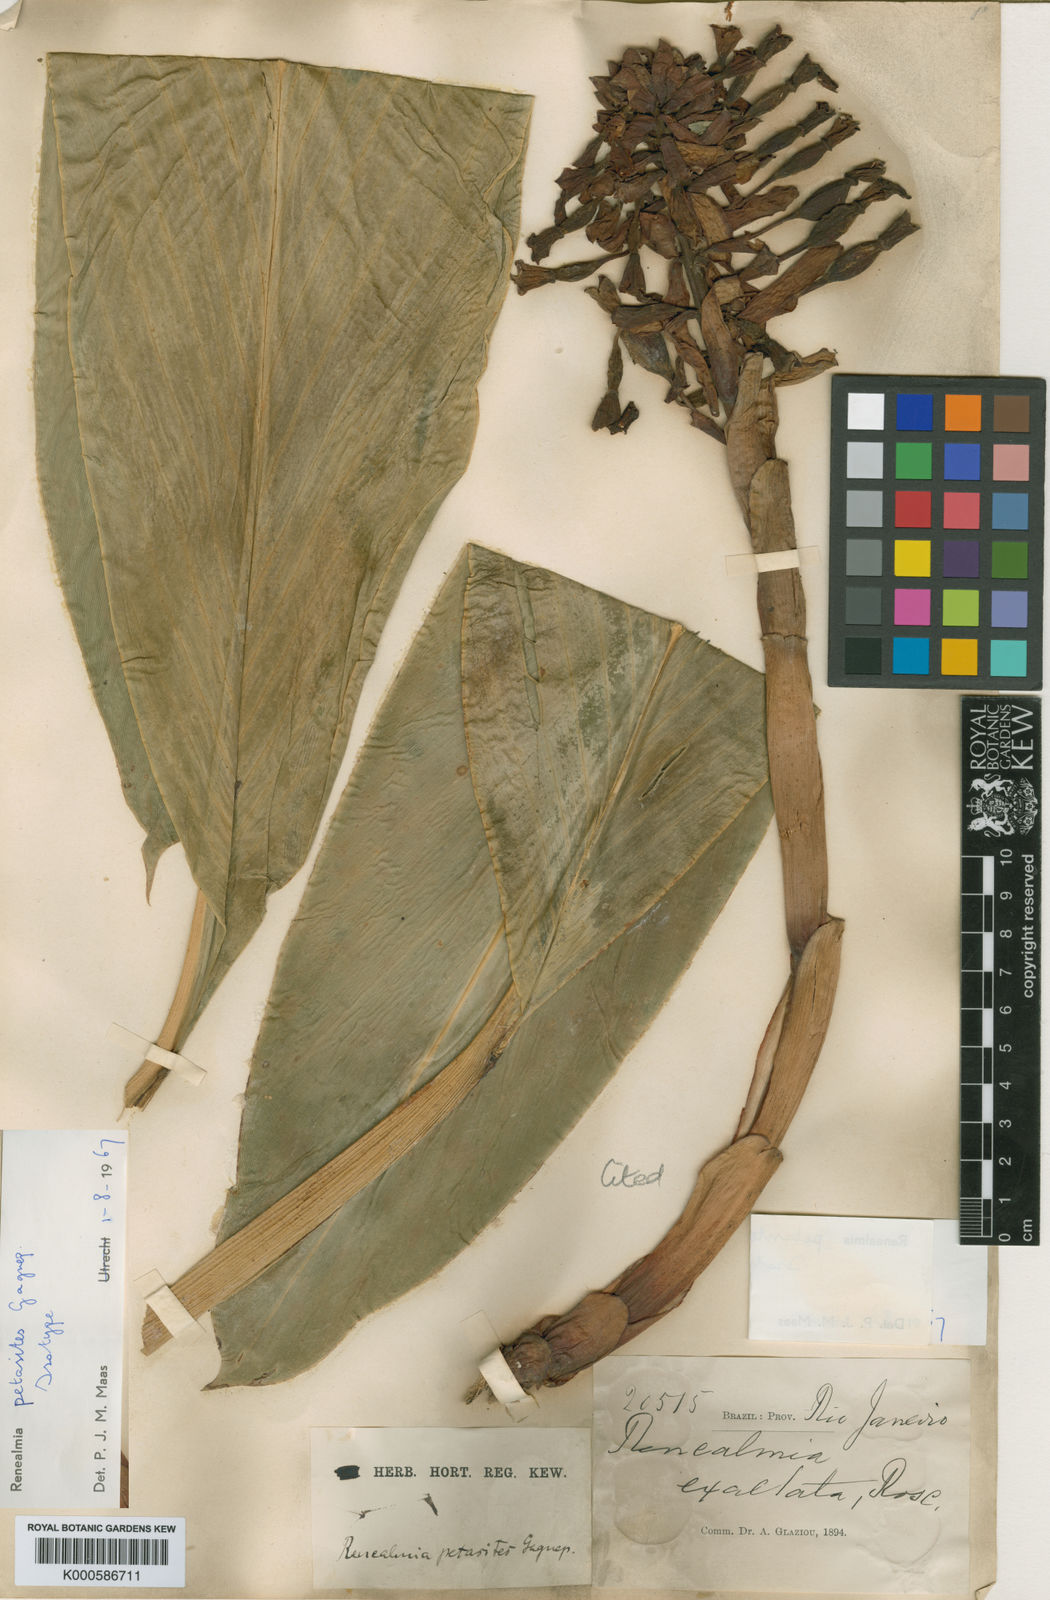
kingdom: Plantae
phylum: Tracheophyta
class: Liliopsida
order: Zingiberales
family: Zingiberaceae
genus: Renealmia
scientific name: Renealmia chrysotricha
